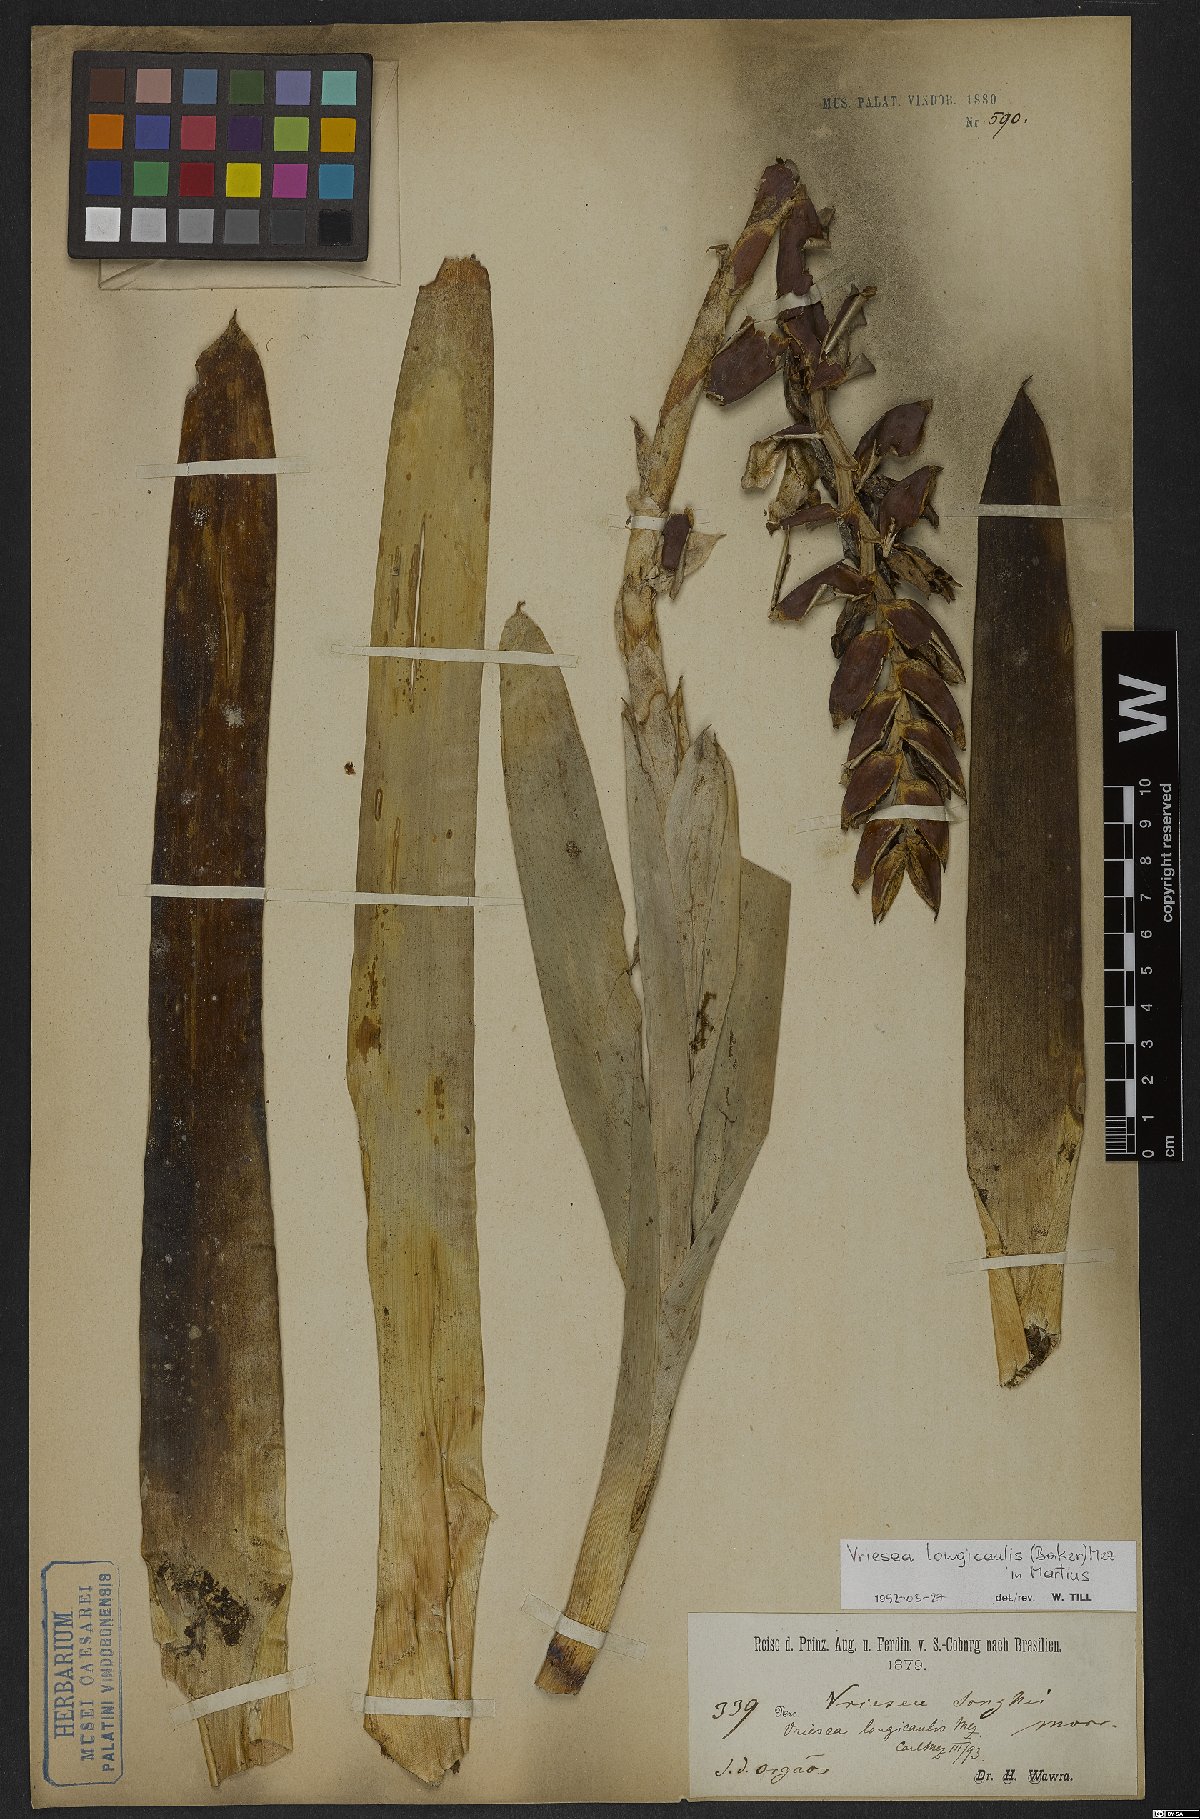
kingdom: Plantae
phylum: Tracheophyta
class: Liliopsida
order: Poales
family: Bromeliaceae
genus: Vriesea
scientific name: Vriesea longicaulis
